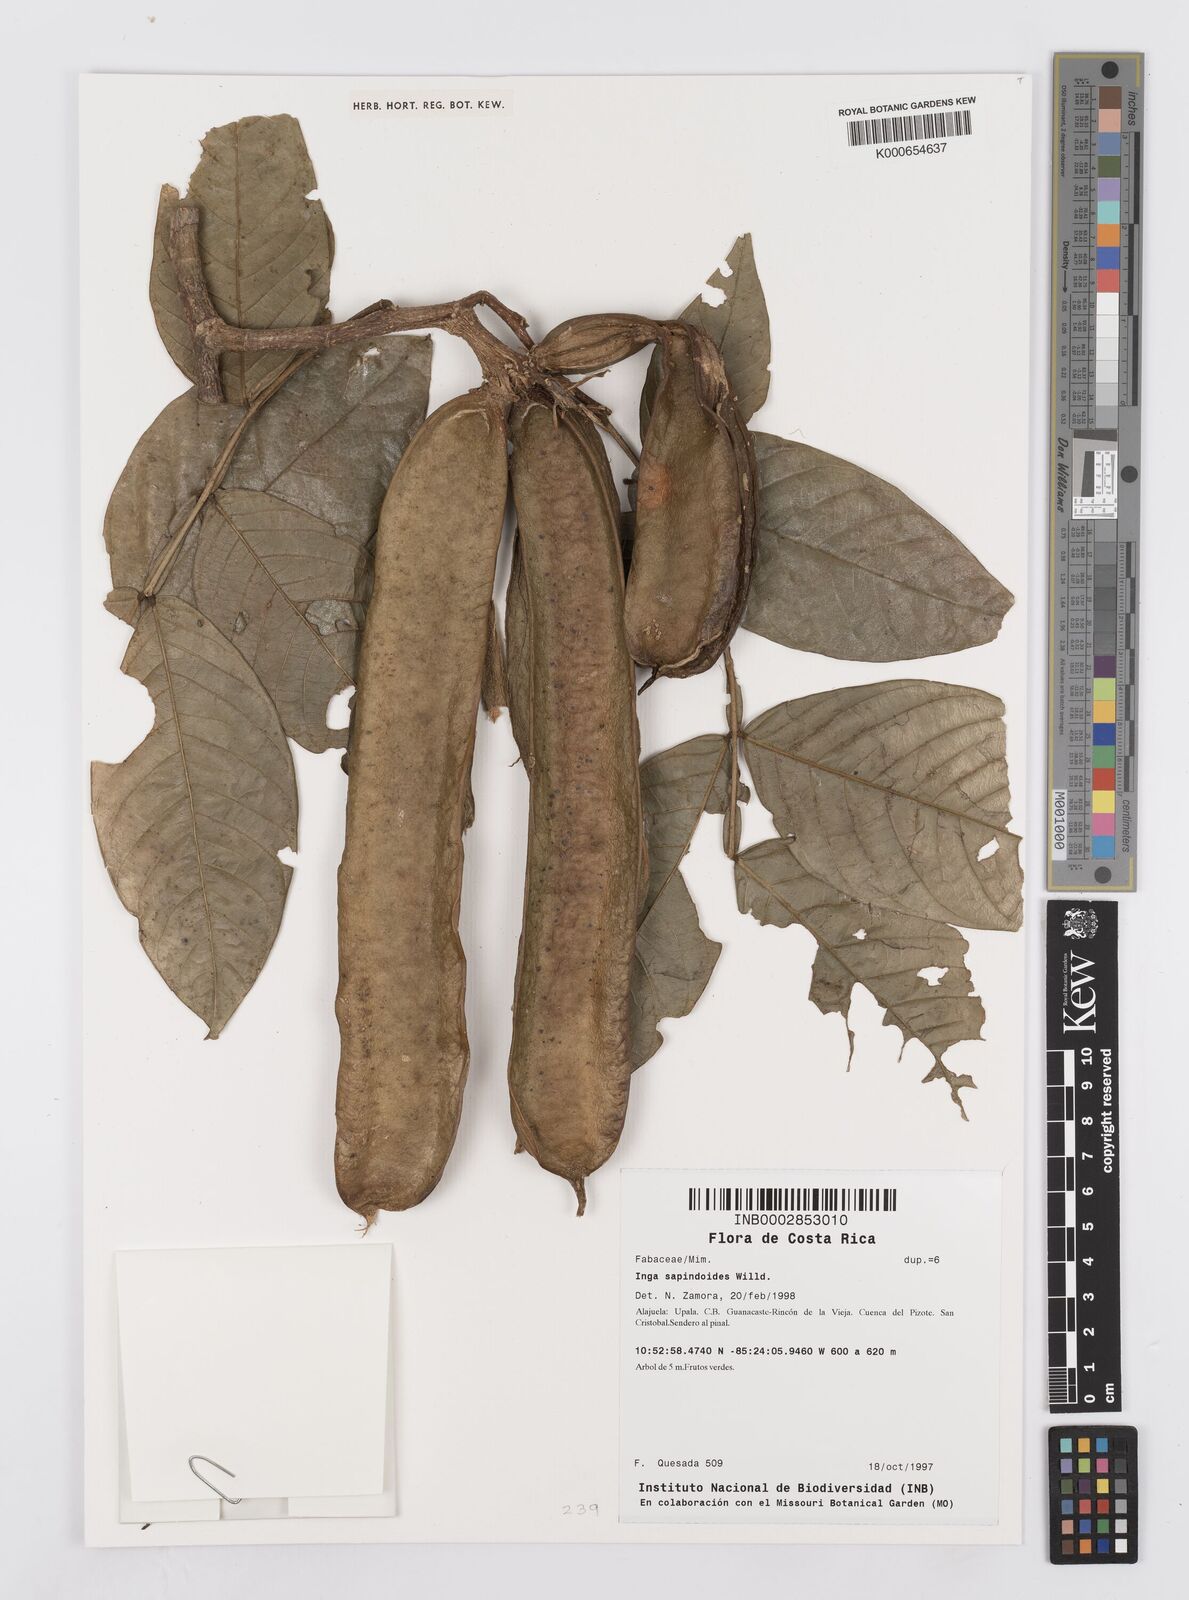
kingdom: Plantae
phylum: Tracheophyta
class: Magnoliopsida
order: Fabales
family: Fabaceae
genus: Inga
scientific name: Inga sapindoides
